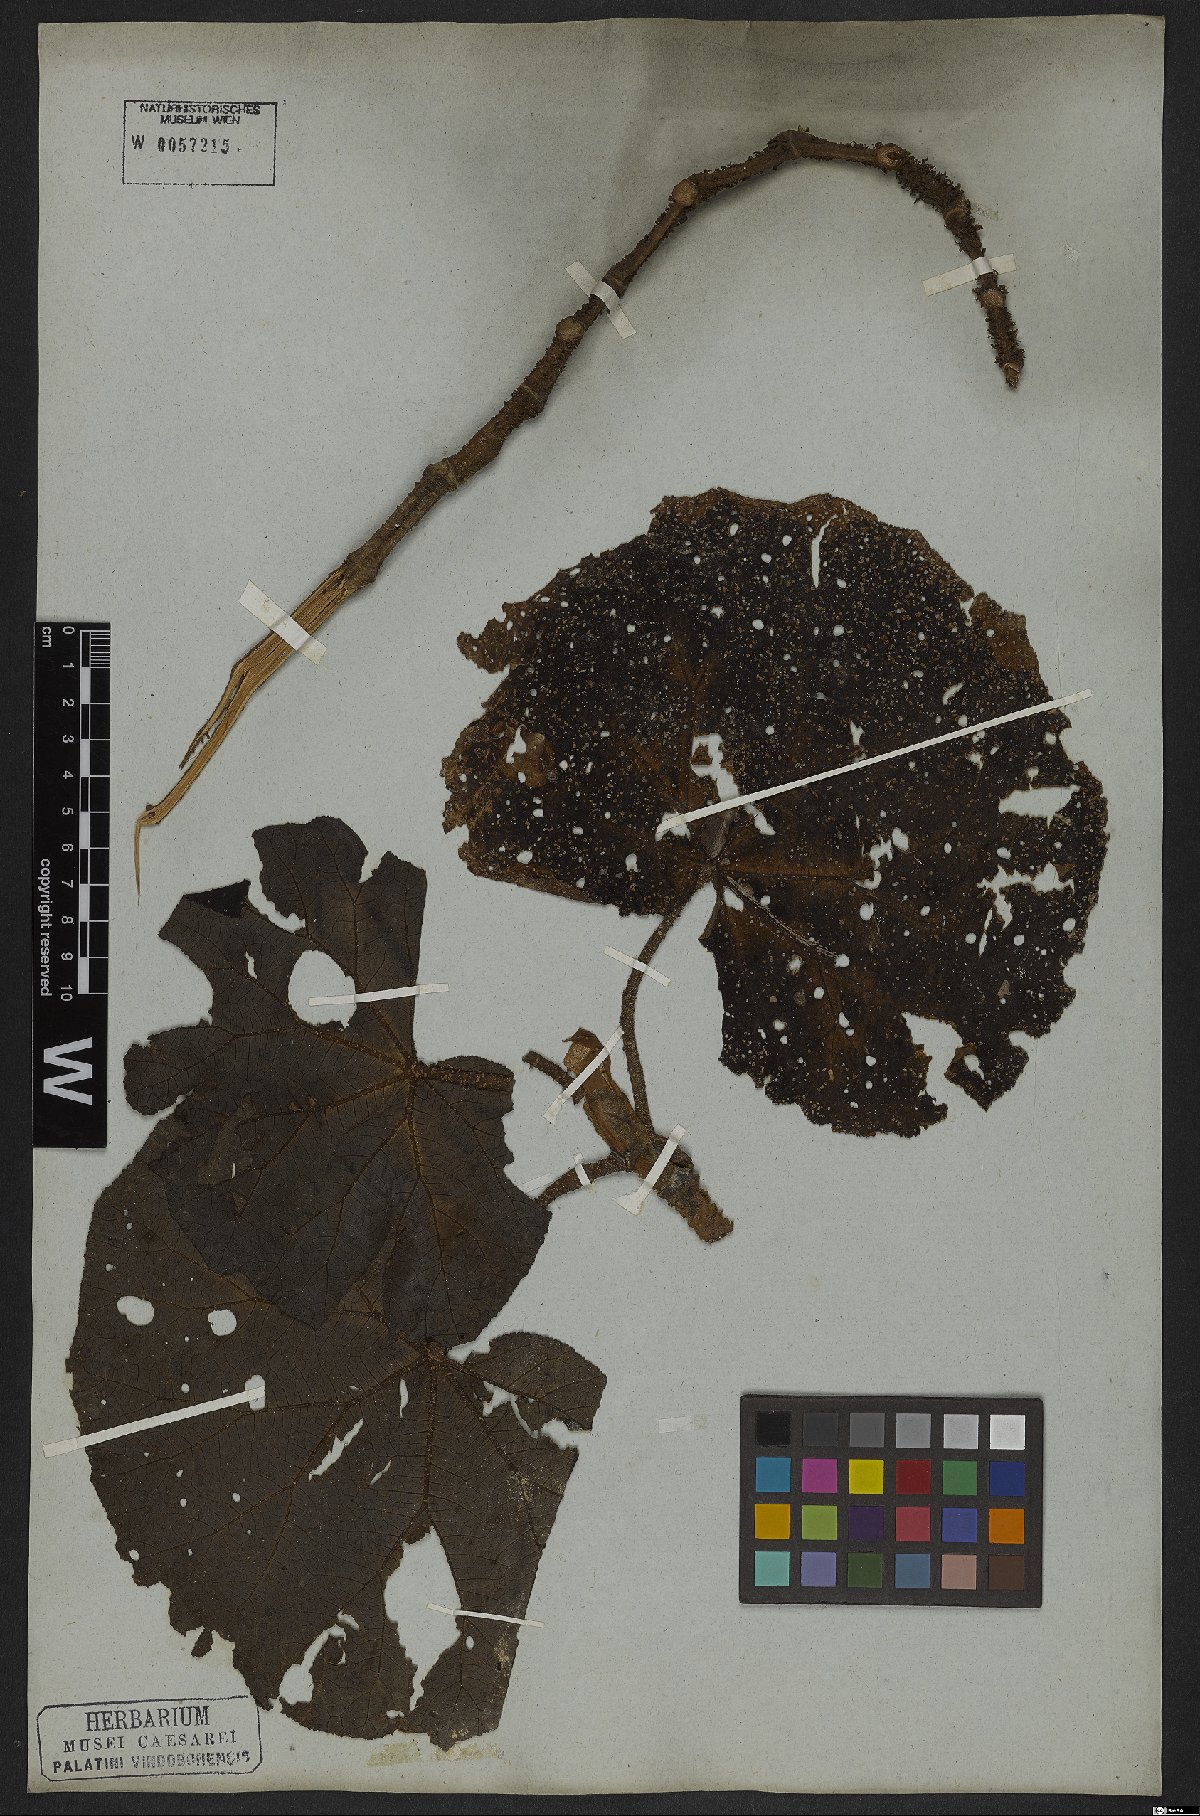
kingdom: Plantae
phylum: Tracheophyta
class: Magnoliopsida
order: Cucurbitales
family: Begoniaceae
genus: Begonia
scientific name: Begonia paleata
